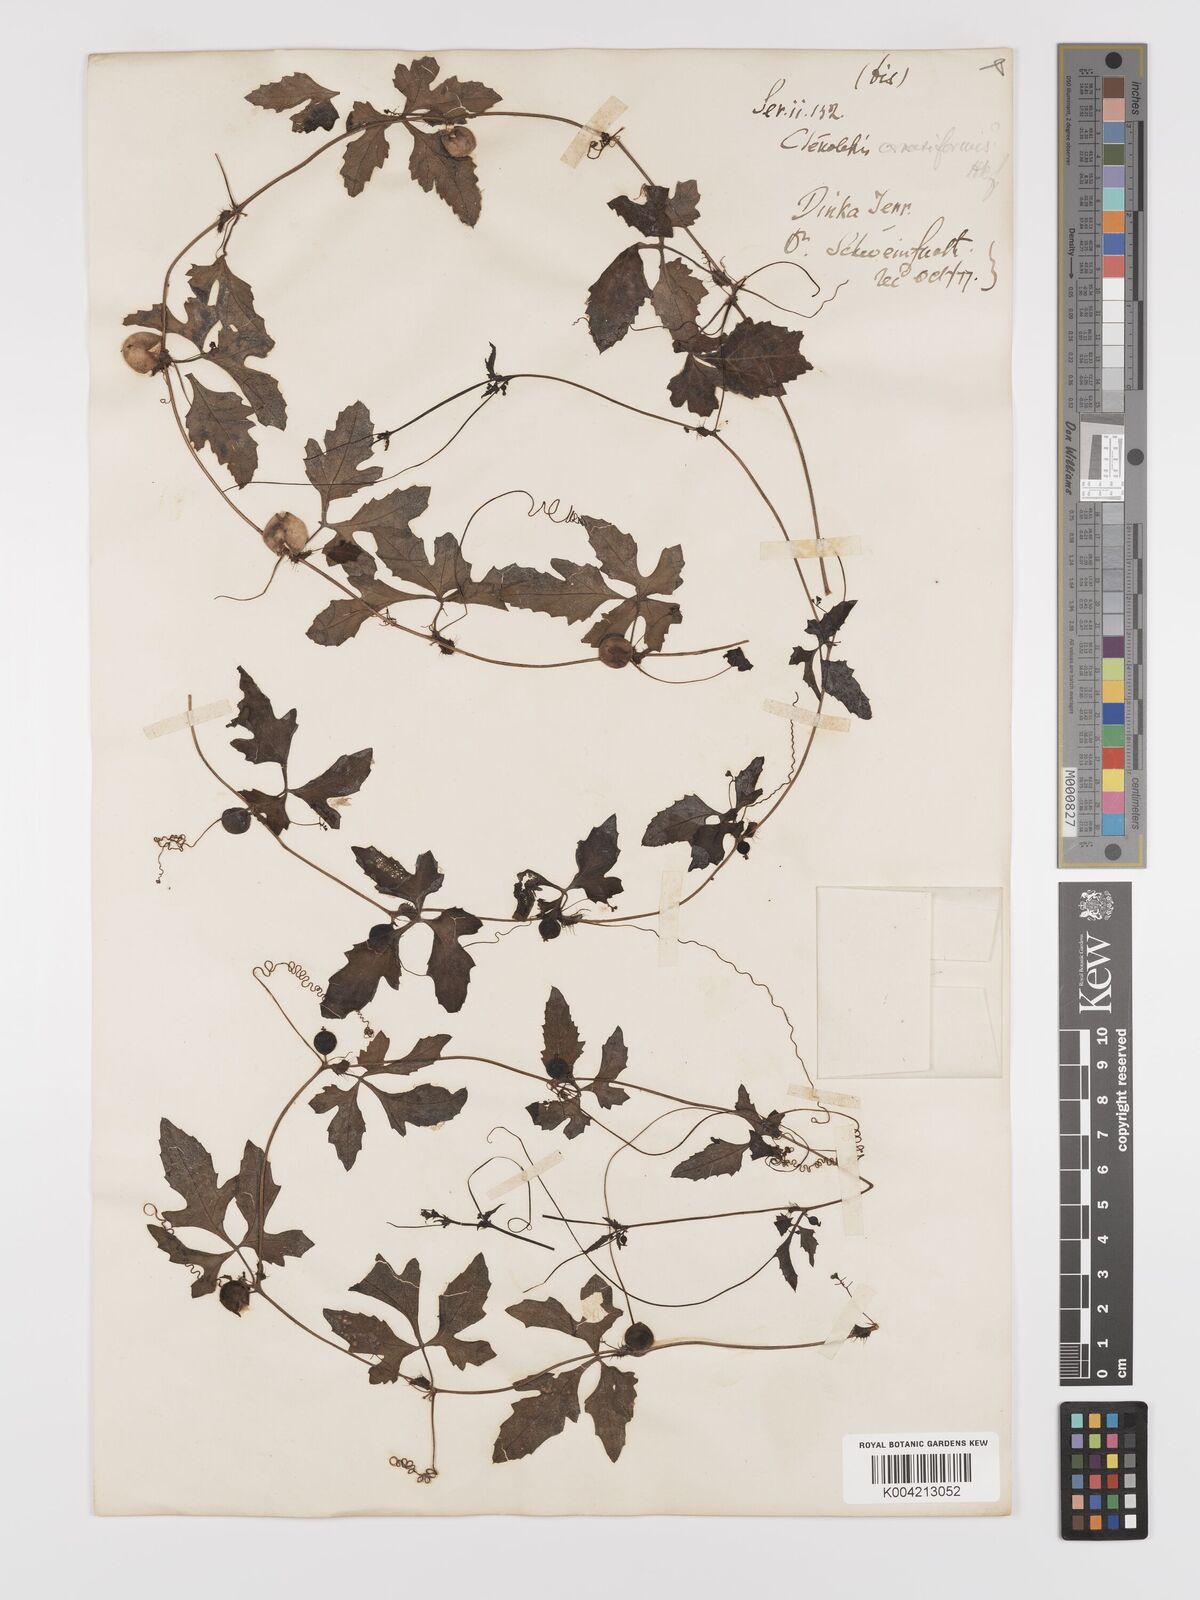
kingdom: Plantae
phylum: Tracheophyta
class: Magnoliopsida
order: Cucurbitales
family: Cucurbitaceae
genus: Blastania
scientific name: Blastania cerasiformis
